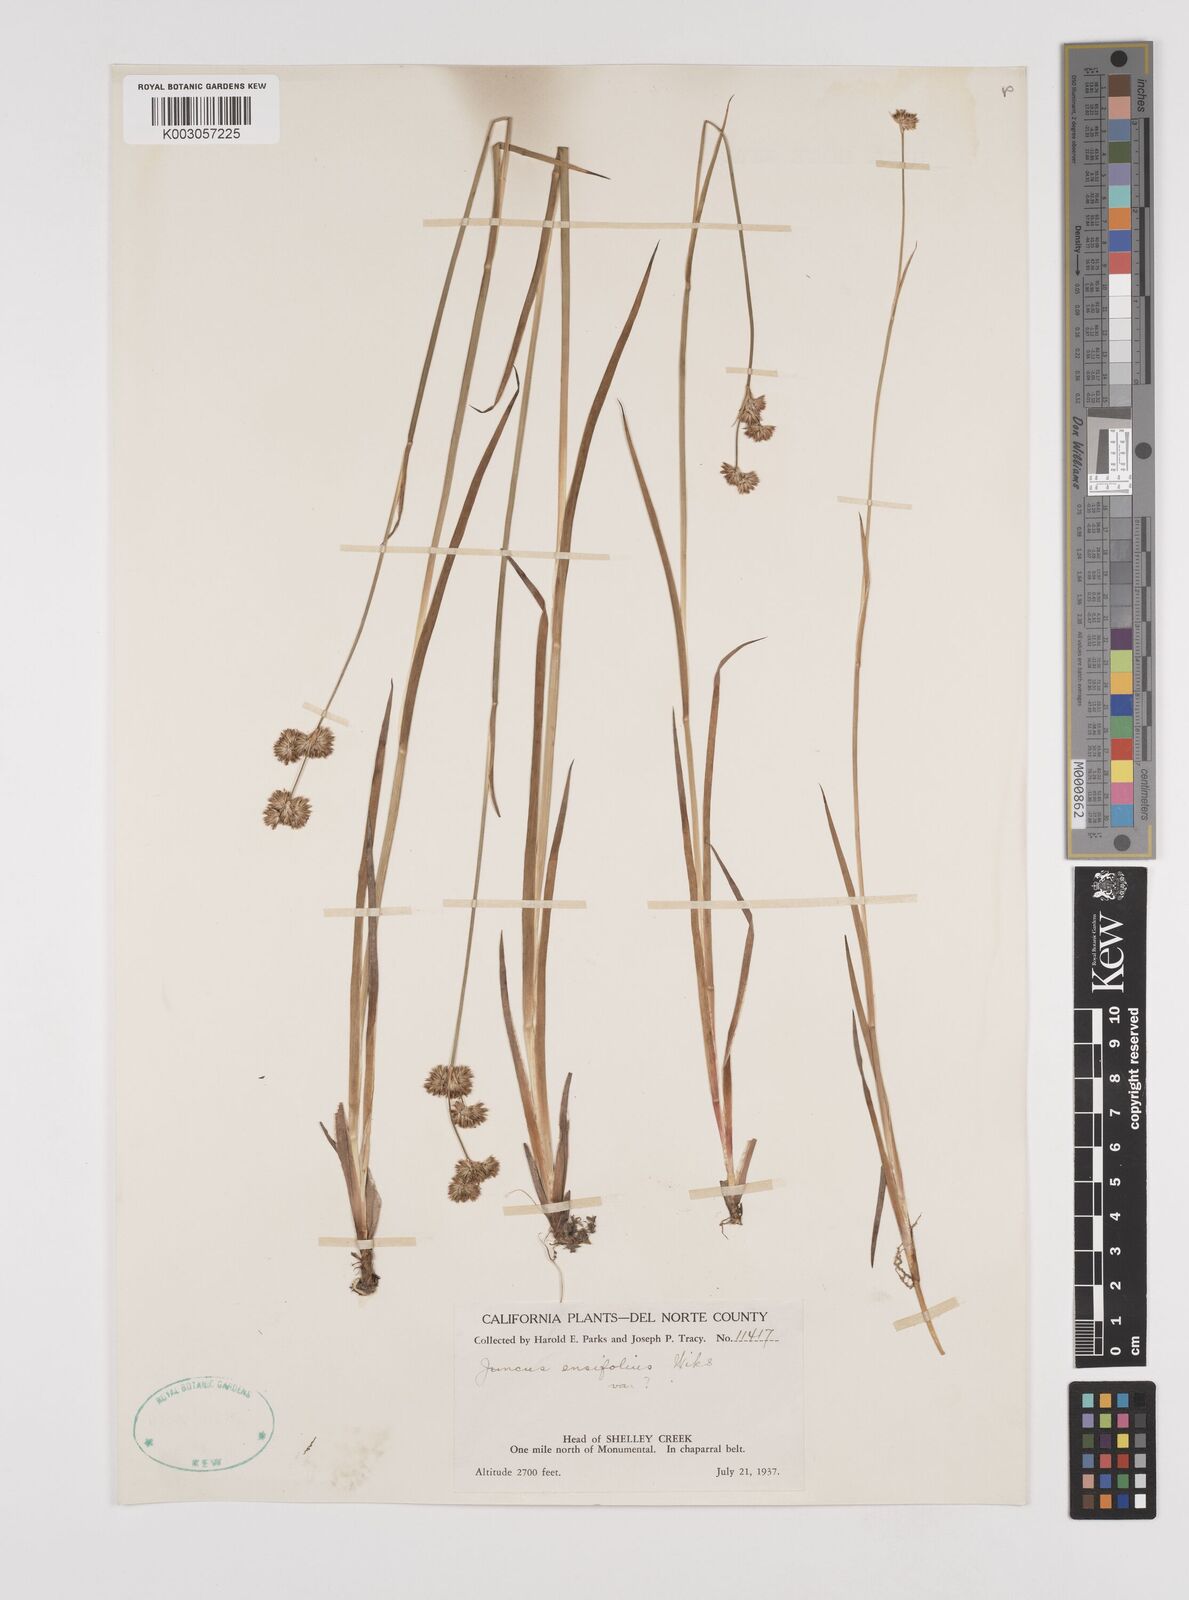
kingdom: Plantae
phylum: Tracheophyta
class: Liliopsida
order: Poales
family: Juncaceae
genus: Juncus
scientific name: Juncus ensifolius
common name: Sword-leaved rush
